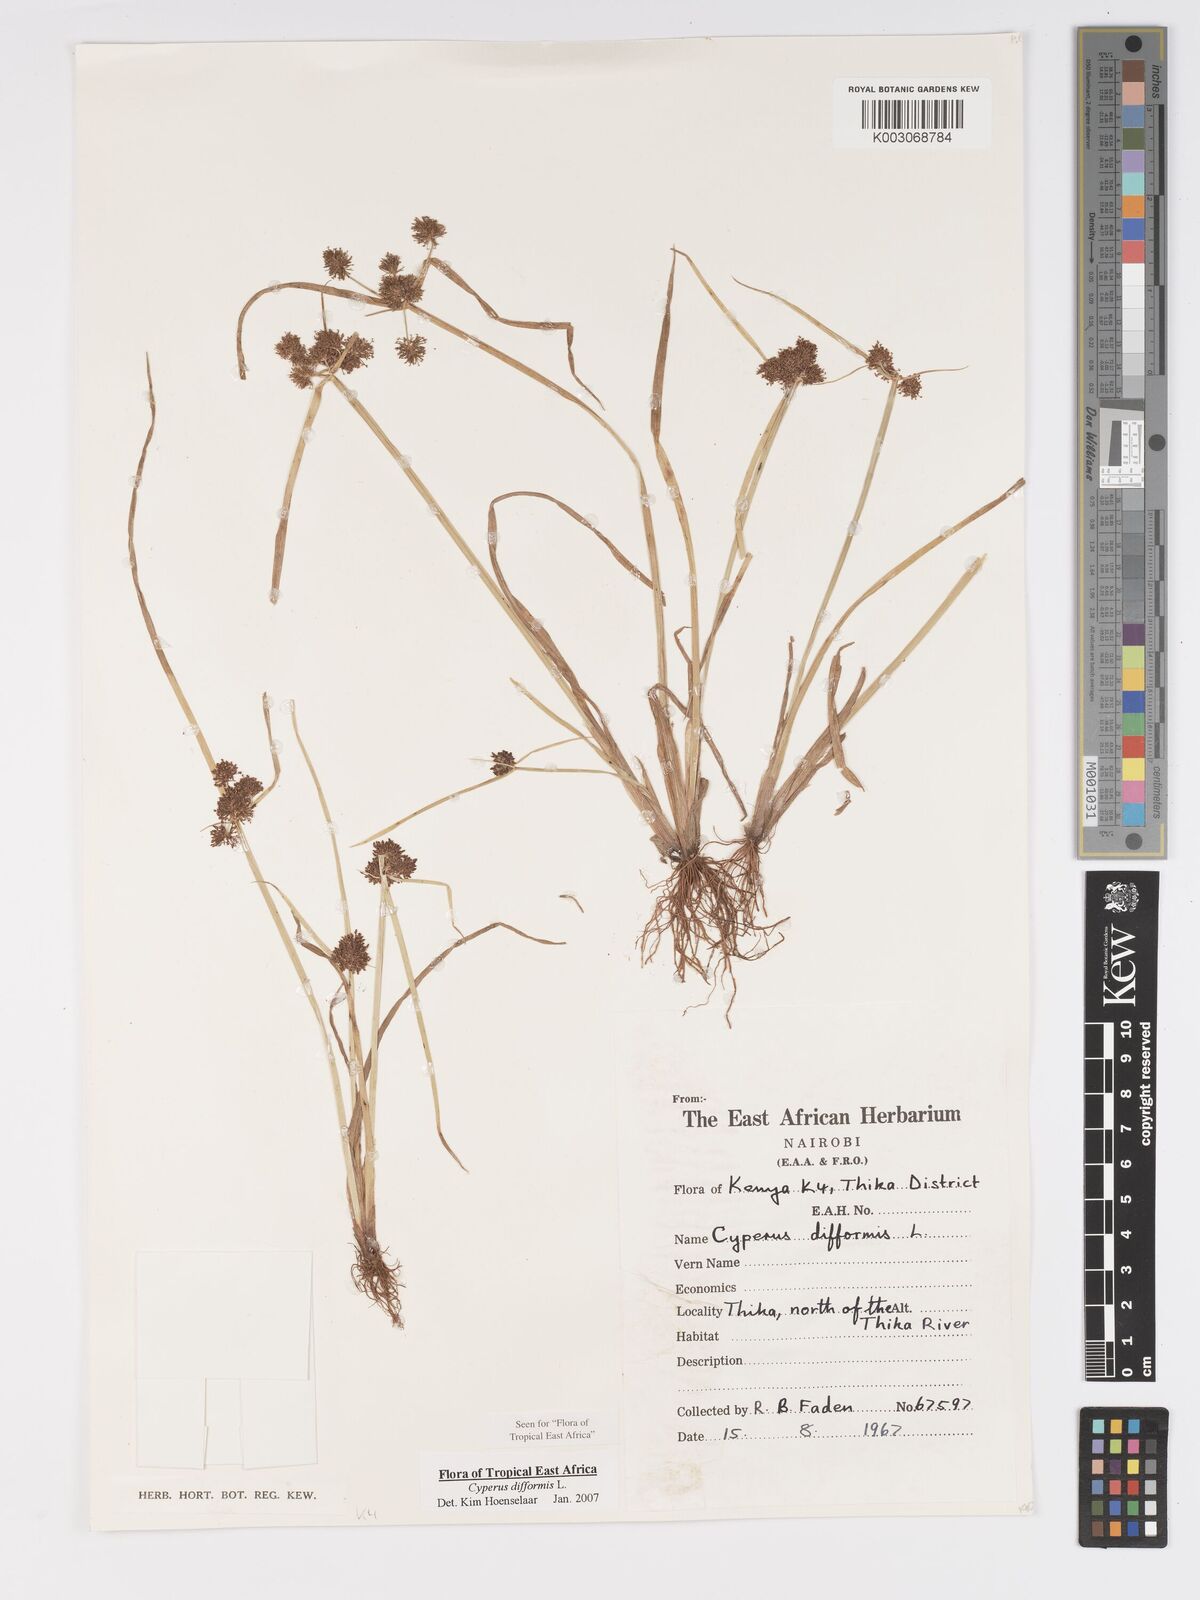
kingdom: Plantae
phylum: Tracheophyta
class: Liliopsida
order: Poales
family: Cyperaceae
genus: Cyperus
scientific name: Cyperus difformis
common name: Variable flatsedge
